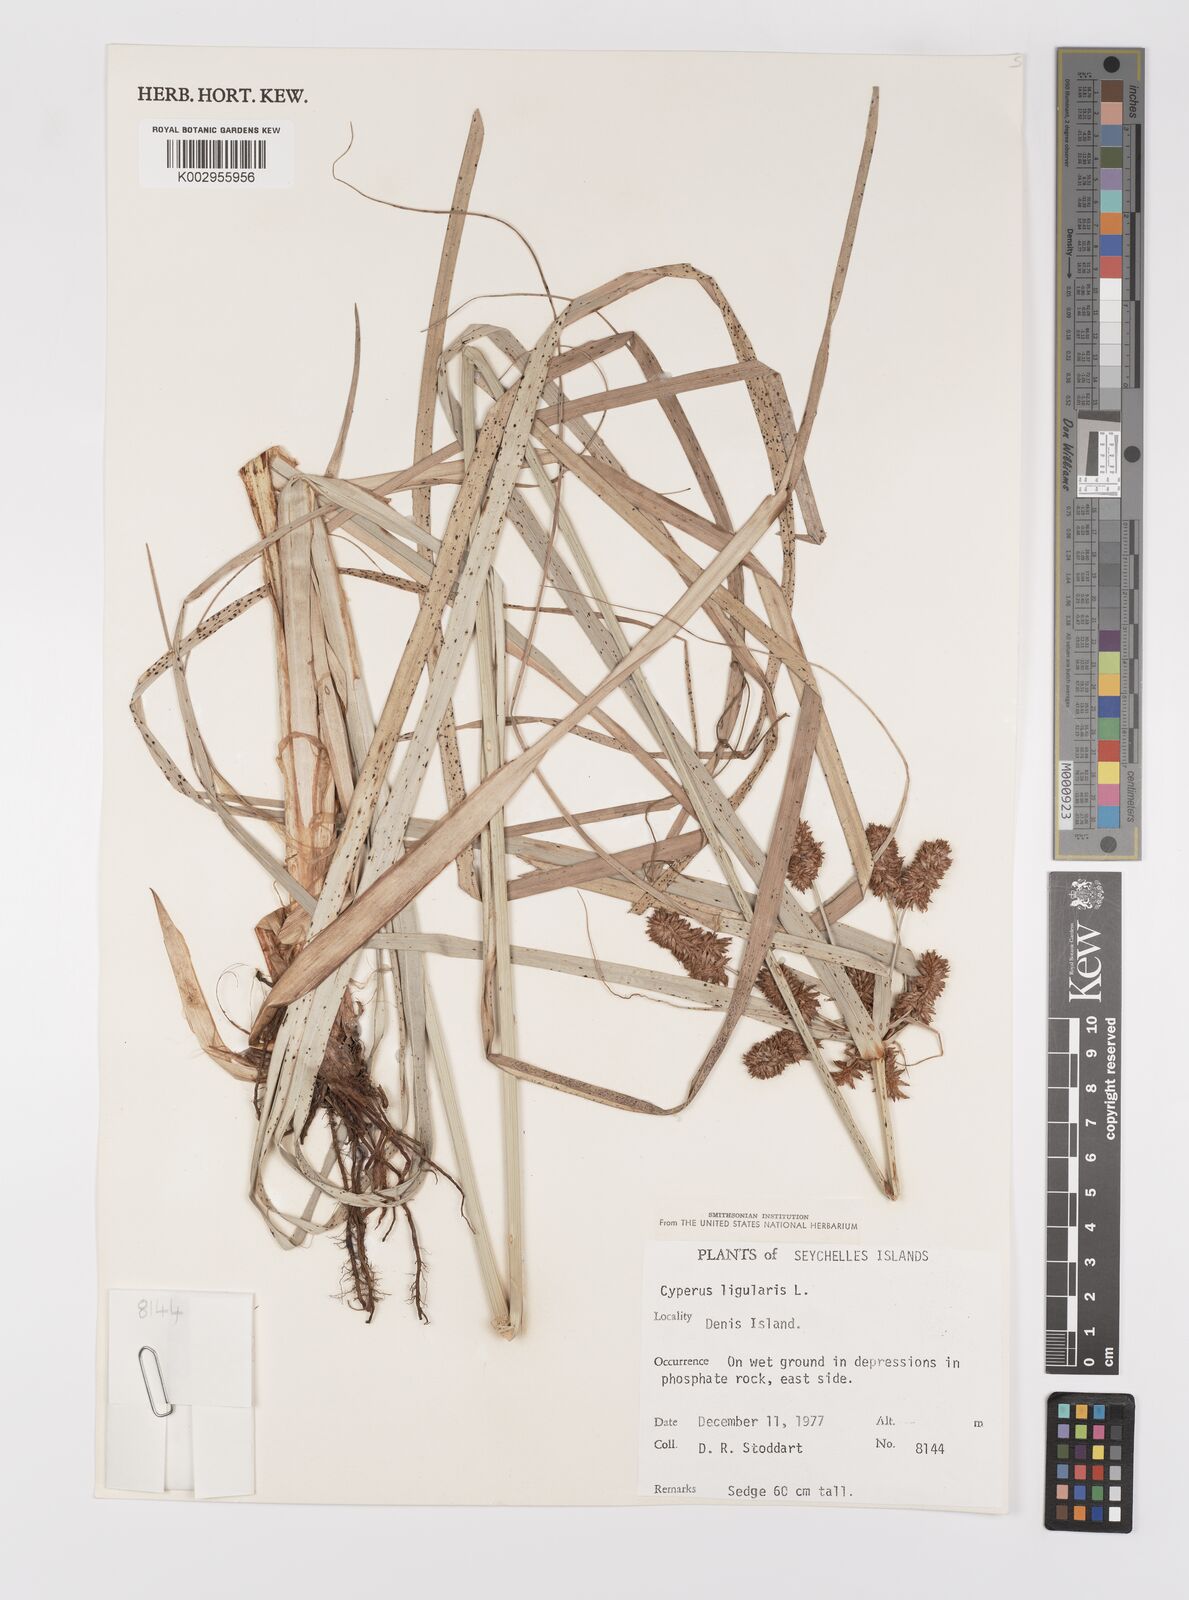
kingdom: Plantae
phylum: Tracheophyta
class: Liliopsida
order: Poales
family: Cyperaceae
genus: Cyperus
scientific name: Cyperus ligularis
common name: Swamp flat sedge
